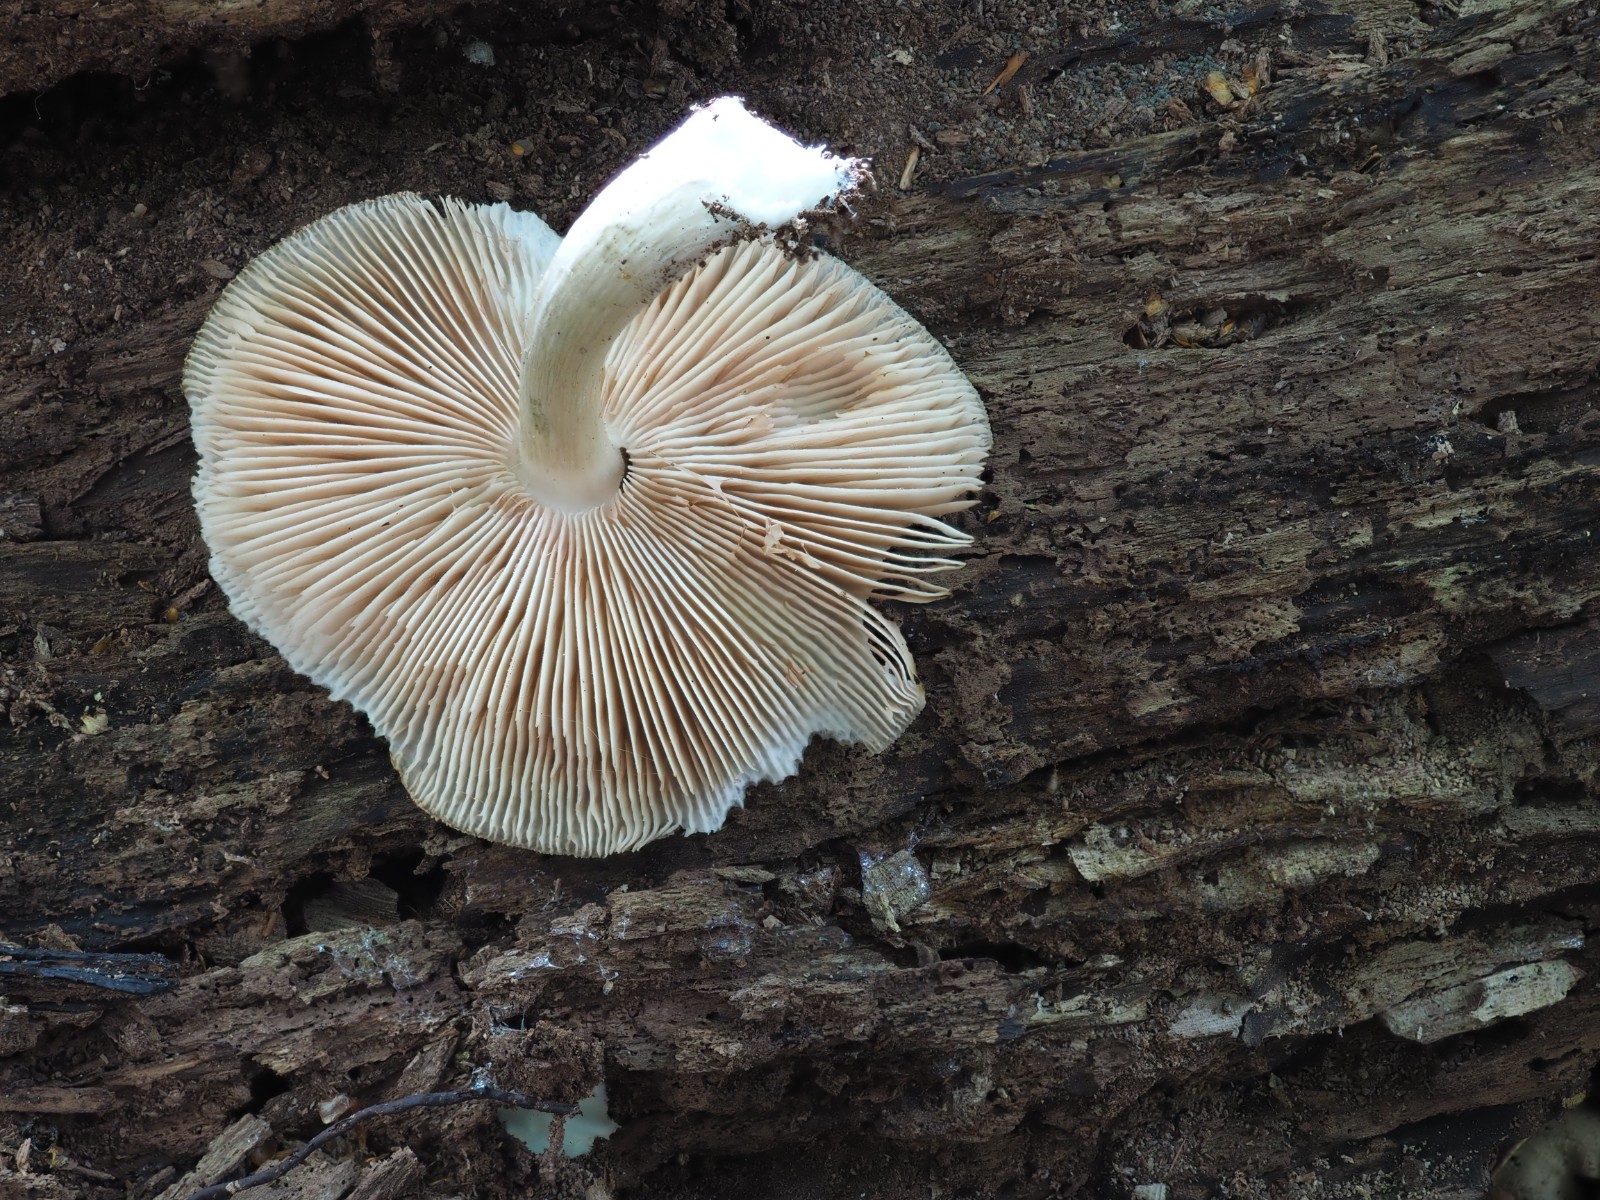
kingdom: Fungi
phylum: Basidiomycota
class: Agaricomycetes
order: Agaricales
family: Pluteaceae
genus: Pluteus
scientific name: Pluteus salicinus
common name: stiv skærmhat
